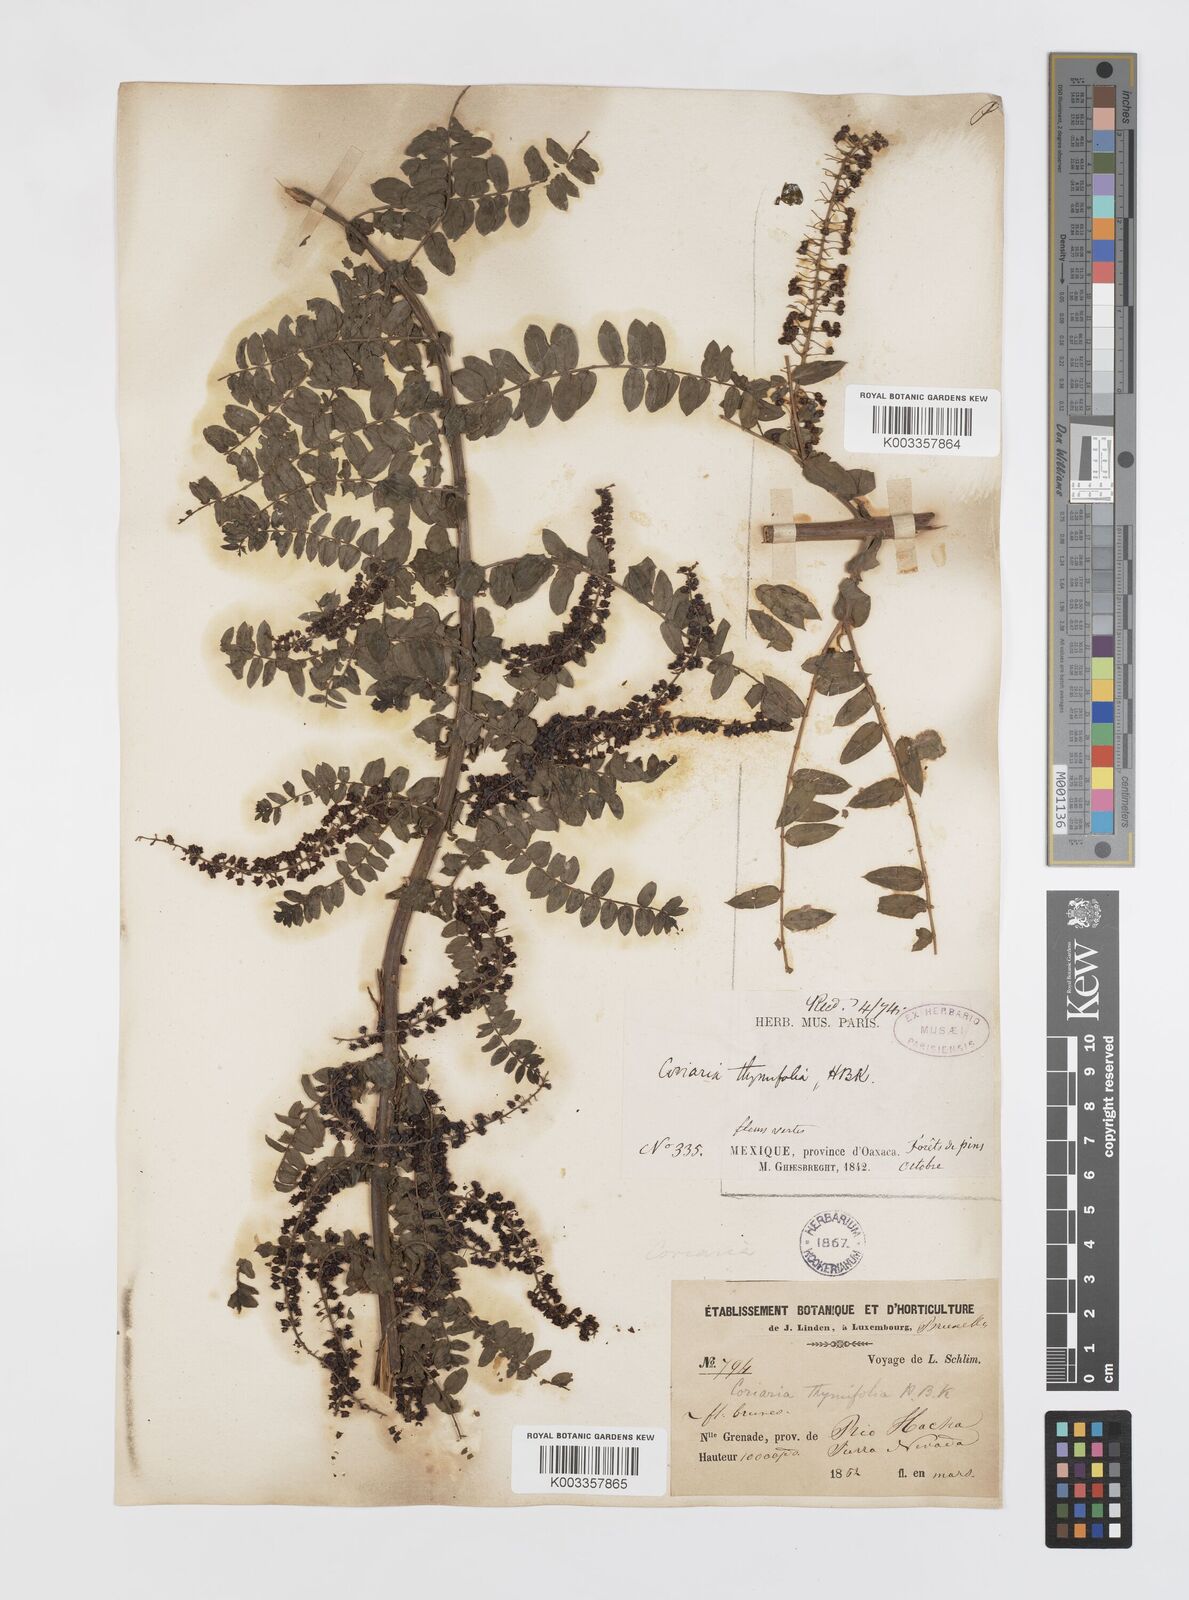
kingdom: Plantae
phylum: Tracheophyta
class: Magnoliopsida
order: Cucurbitales
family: Coriariaceae
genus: Coriaria
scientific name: Coriaria microphylla
